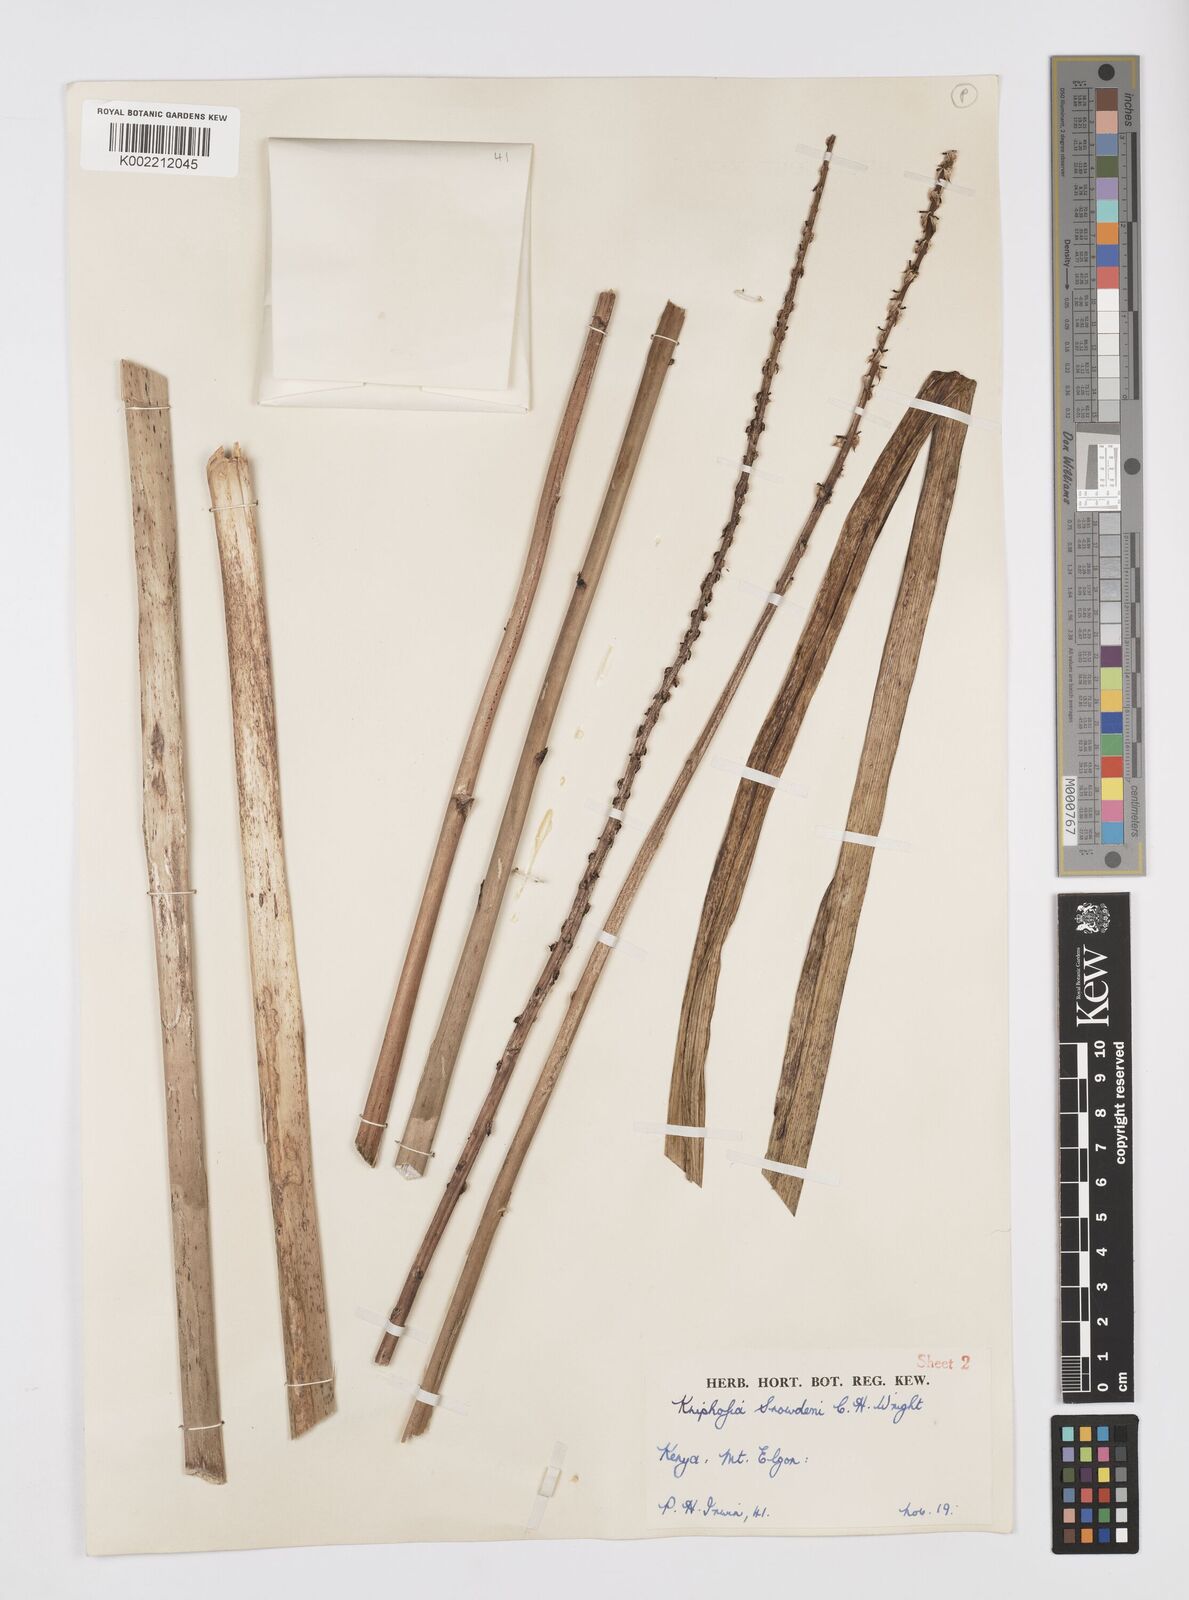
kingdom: Plantae
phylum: Tracheophyta
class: Liliopsida
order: Asparagales
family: Asphodelaceae
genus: Kniphofia
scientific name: Kniphofia
